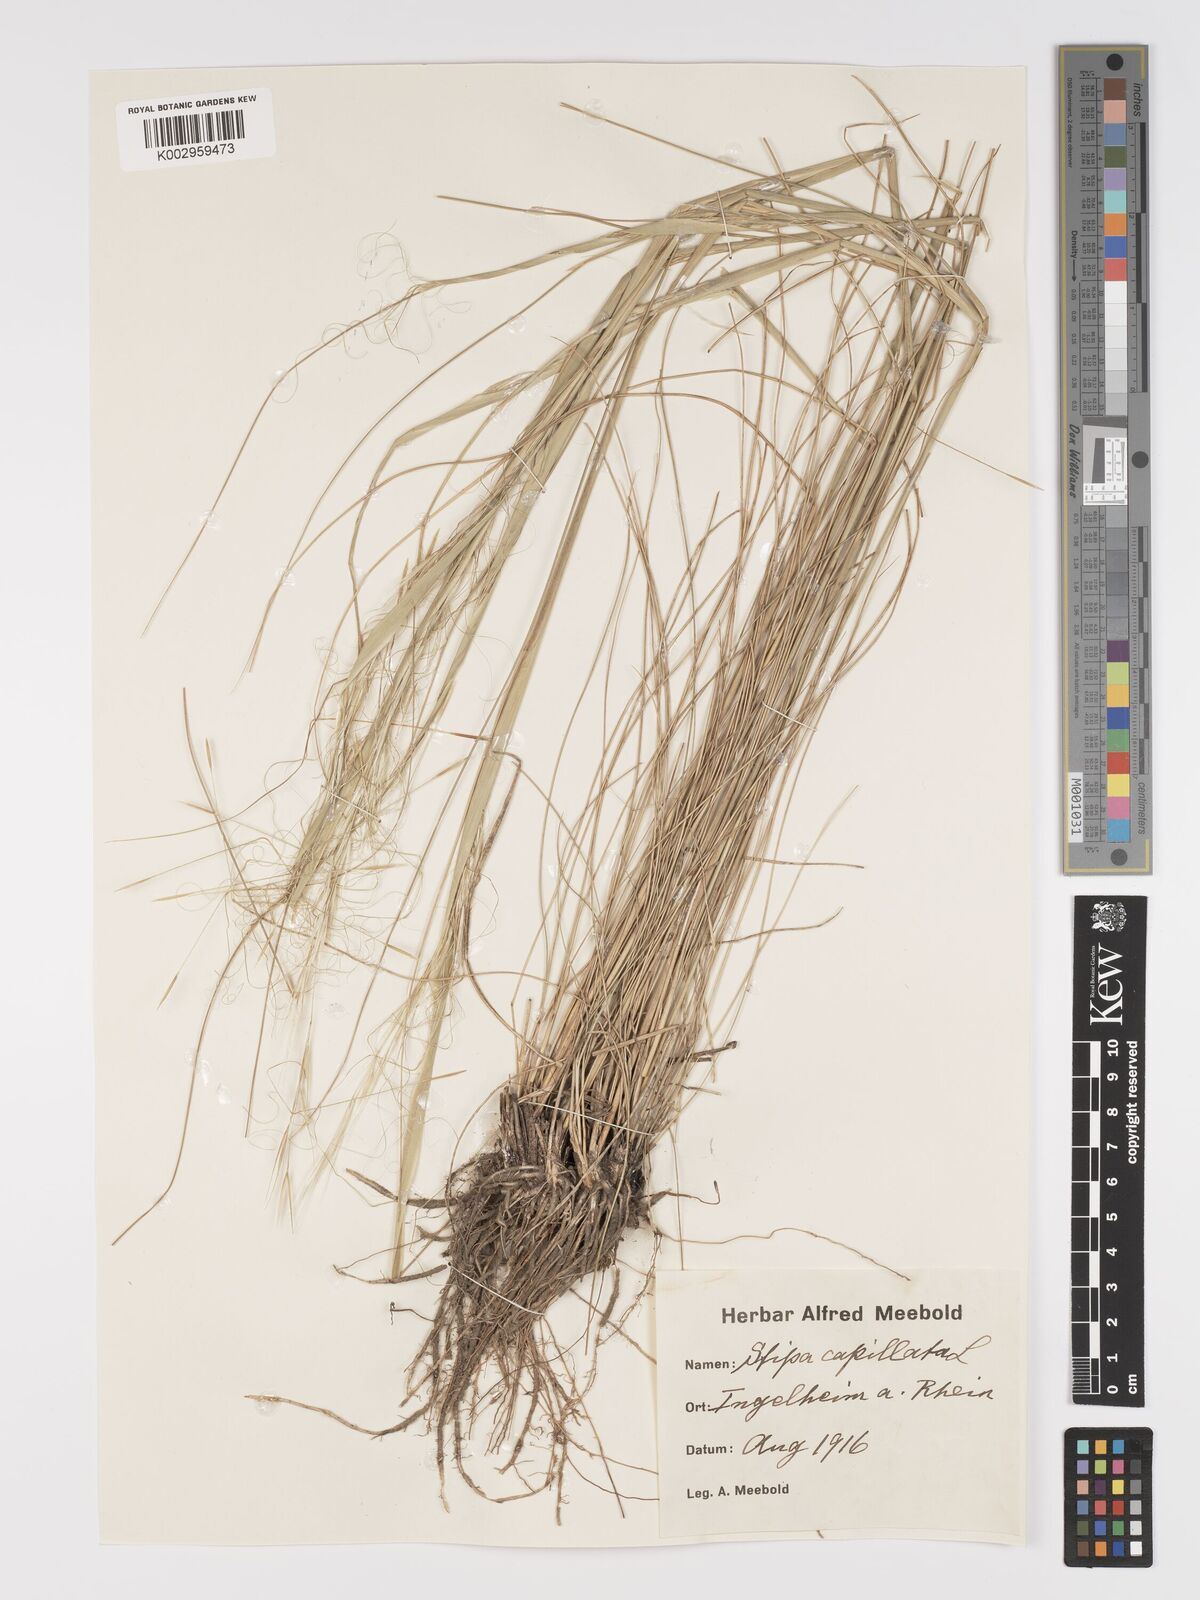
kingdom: Plantae
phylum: Tracheophyta
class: Liliopsida
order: Poales
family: Poaceae
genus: Stipa
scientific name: Stipa capillata
